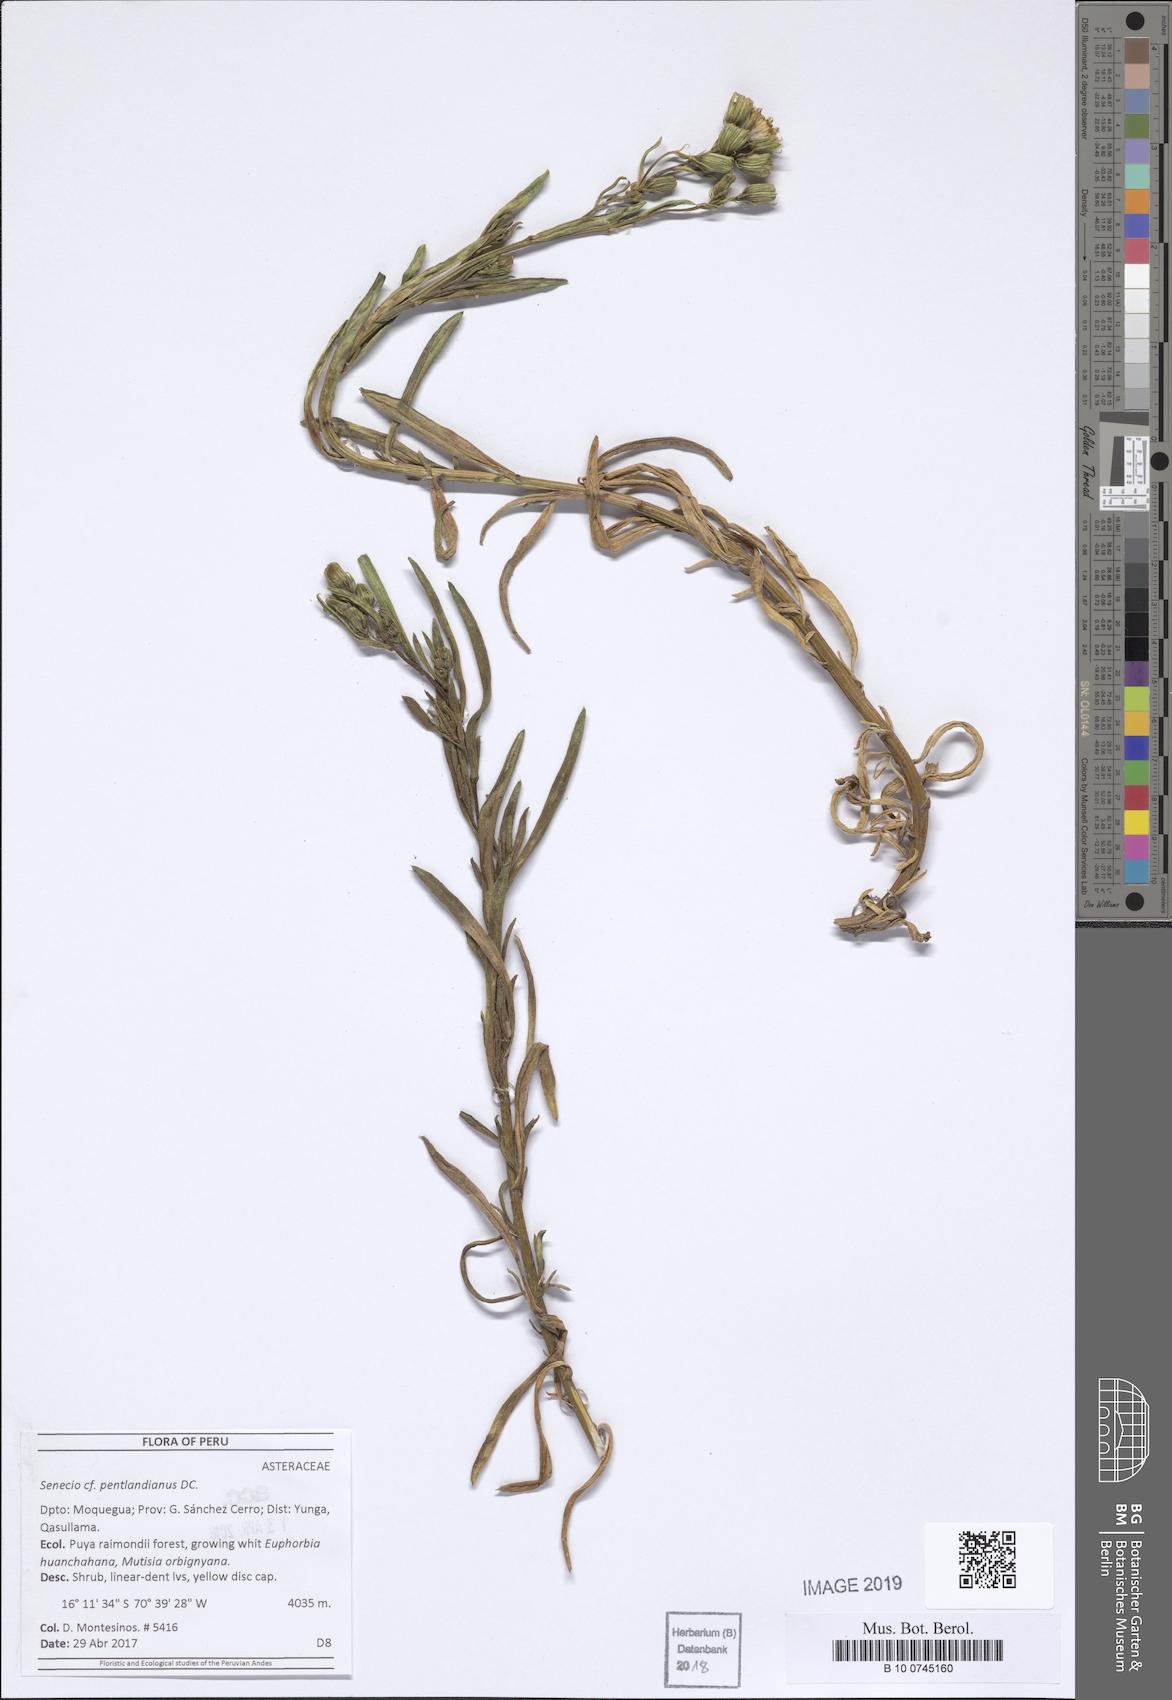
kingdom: Plantae
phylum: Tracheophyta
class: Magnoliopsida
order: Asterales
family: Asteraceae
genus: Senecio
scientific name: Senecio pentlandianus
